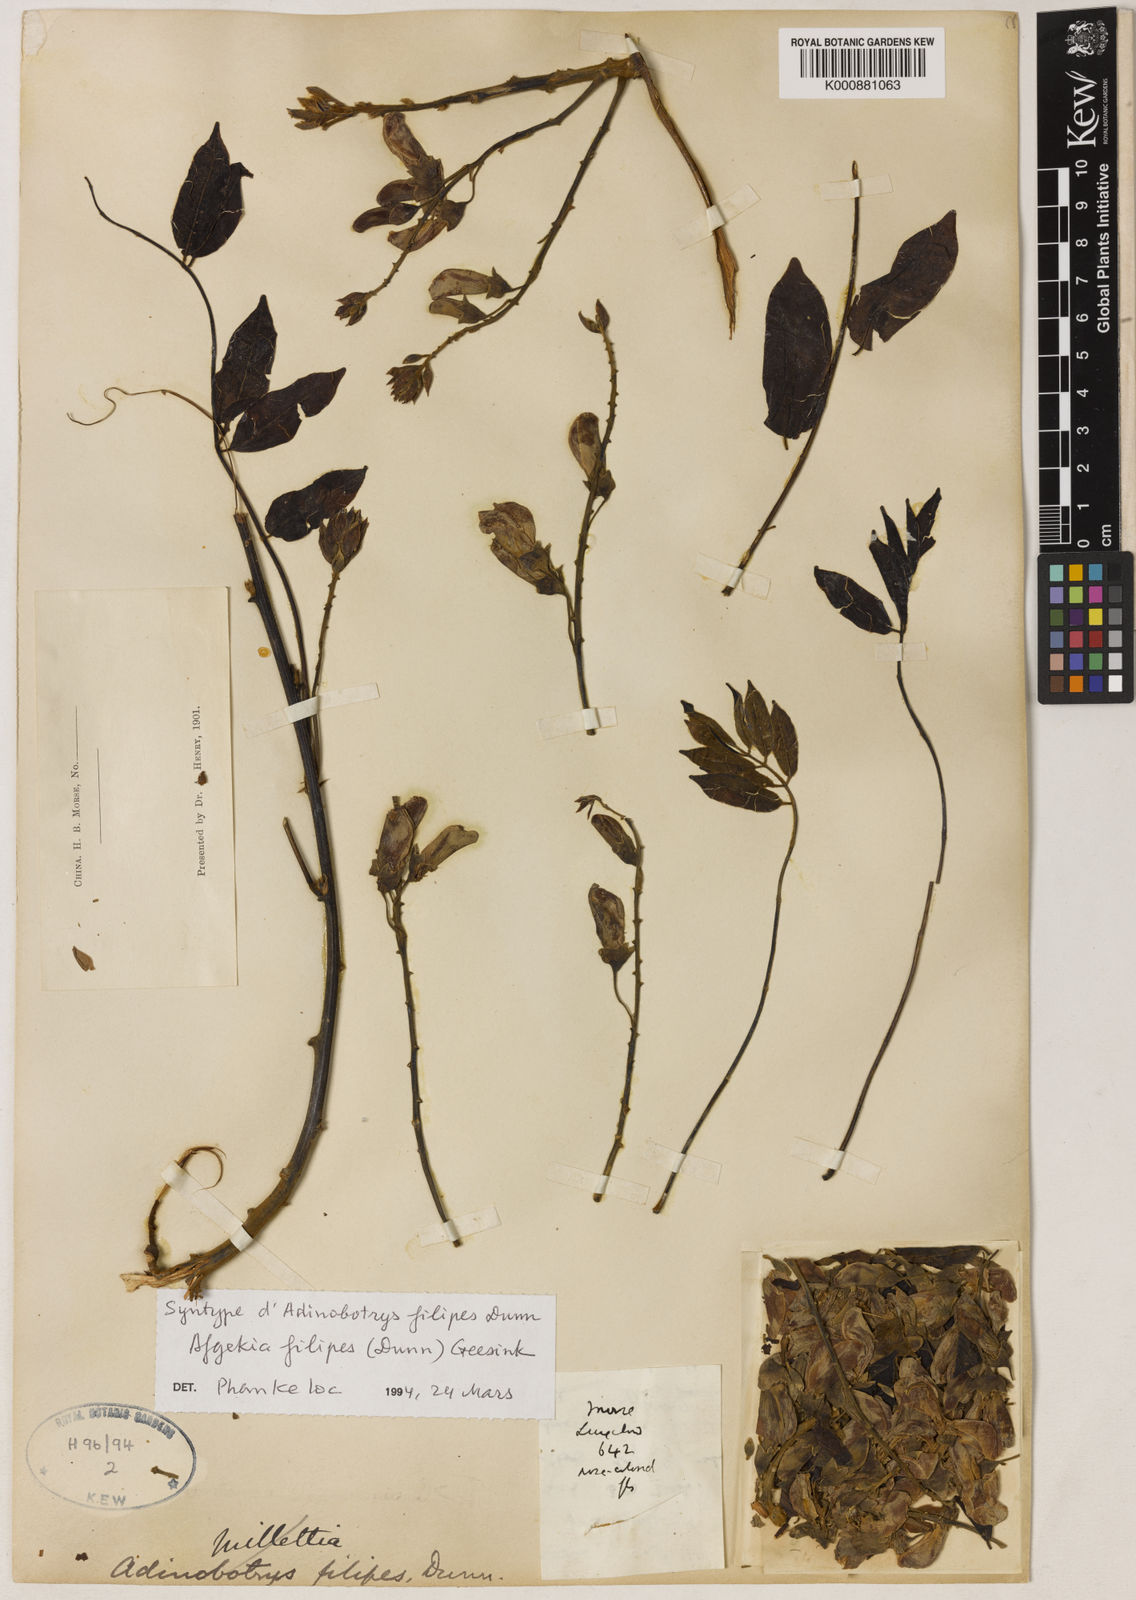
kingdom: Plantae
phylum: Tracheophyta
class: Magnoliopsida
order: Fabales
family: Fabaceae
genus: Padbruggea
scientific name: Padbruggea filipes
